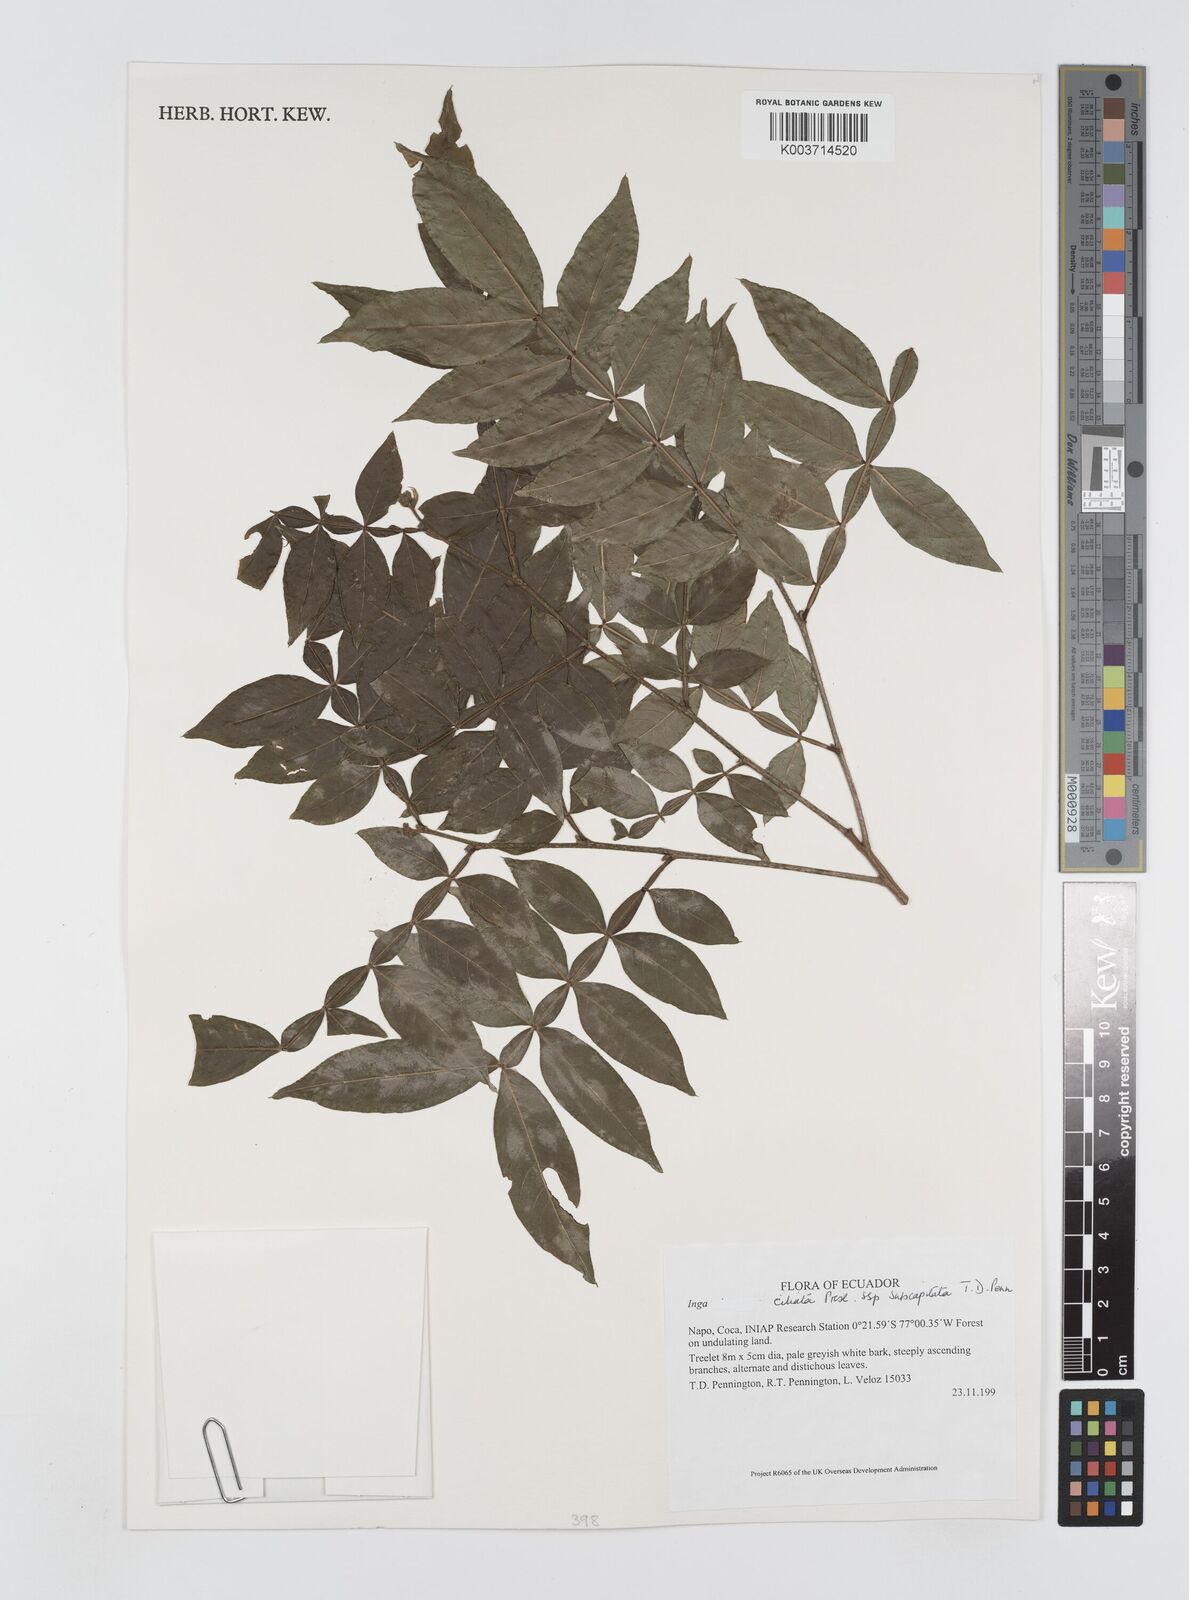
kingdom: Plantae
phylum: Tracheophyta
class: Magnoliopsida
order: Fabales
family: Fabaceae
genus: Inga
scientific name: Inga ciliata
